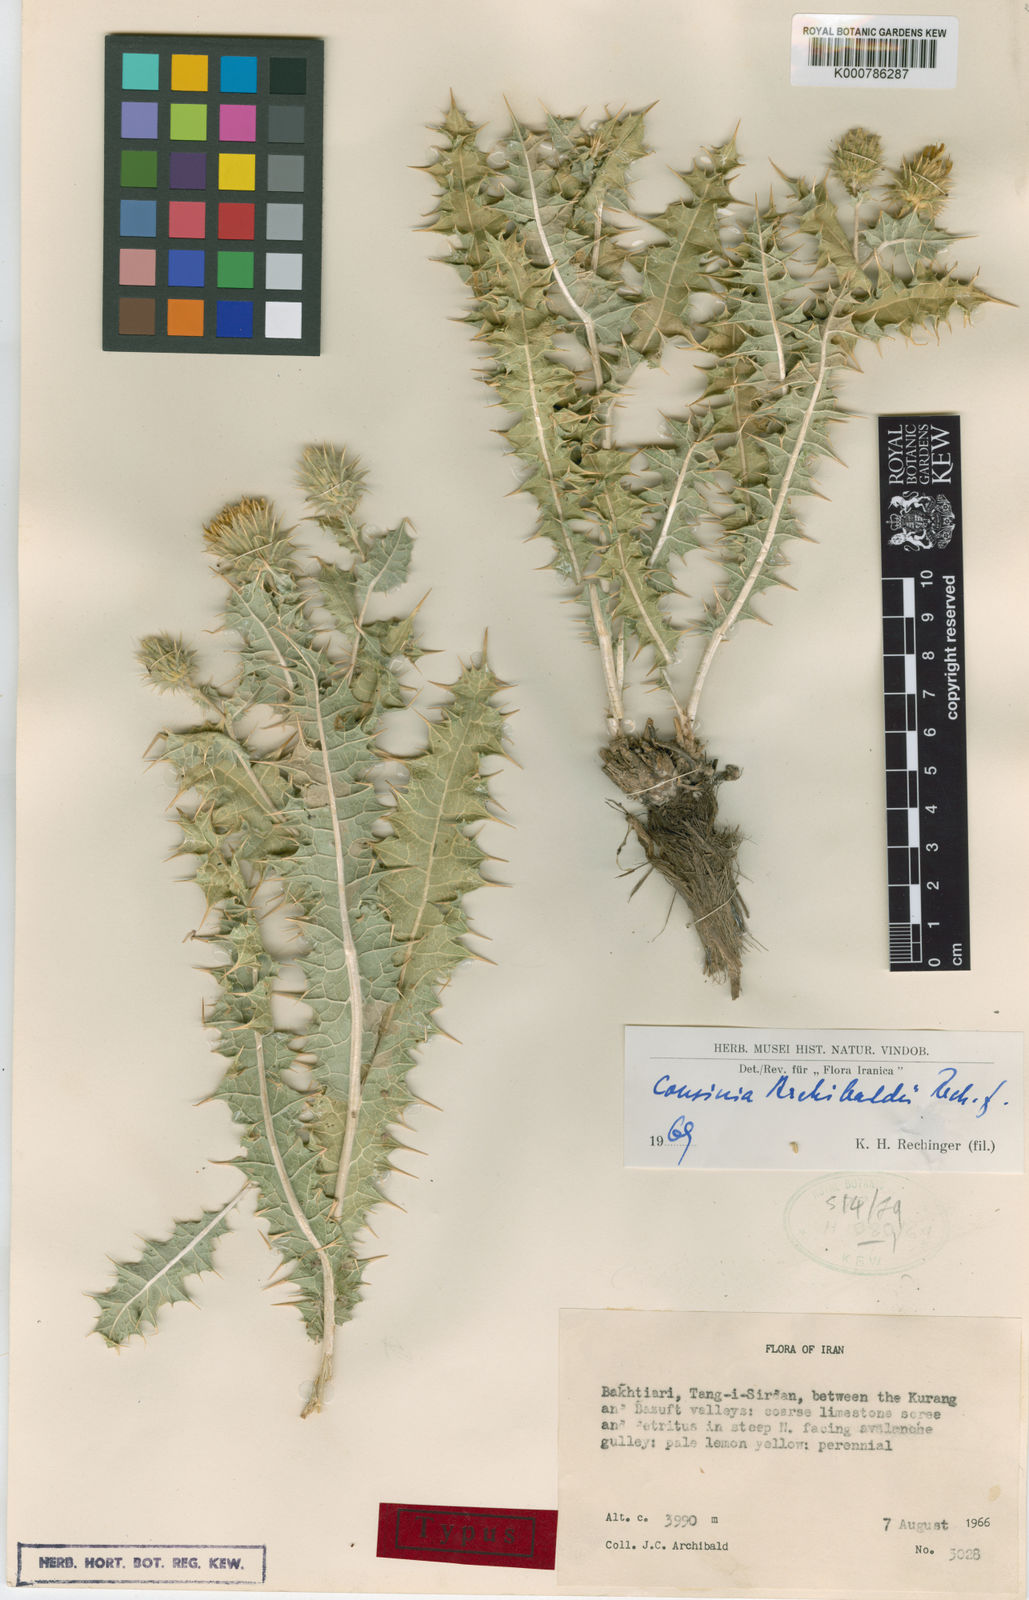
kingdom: Plantae
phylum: Tracheophyta
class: Magnoliopsida
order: Asterales
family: Asteraceae
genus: Cousinia
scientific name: Cousinia archibaldii
